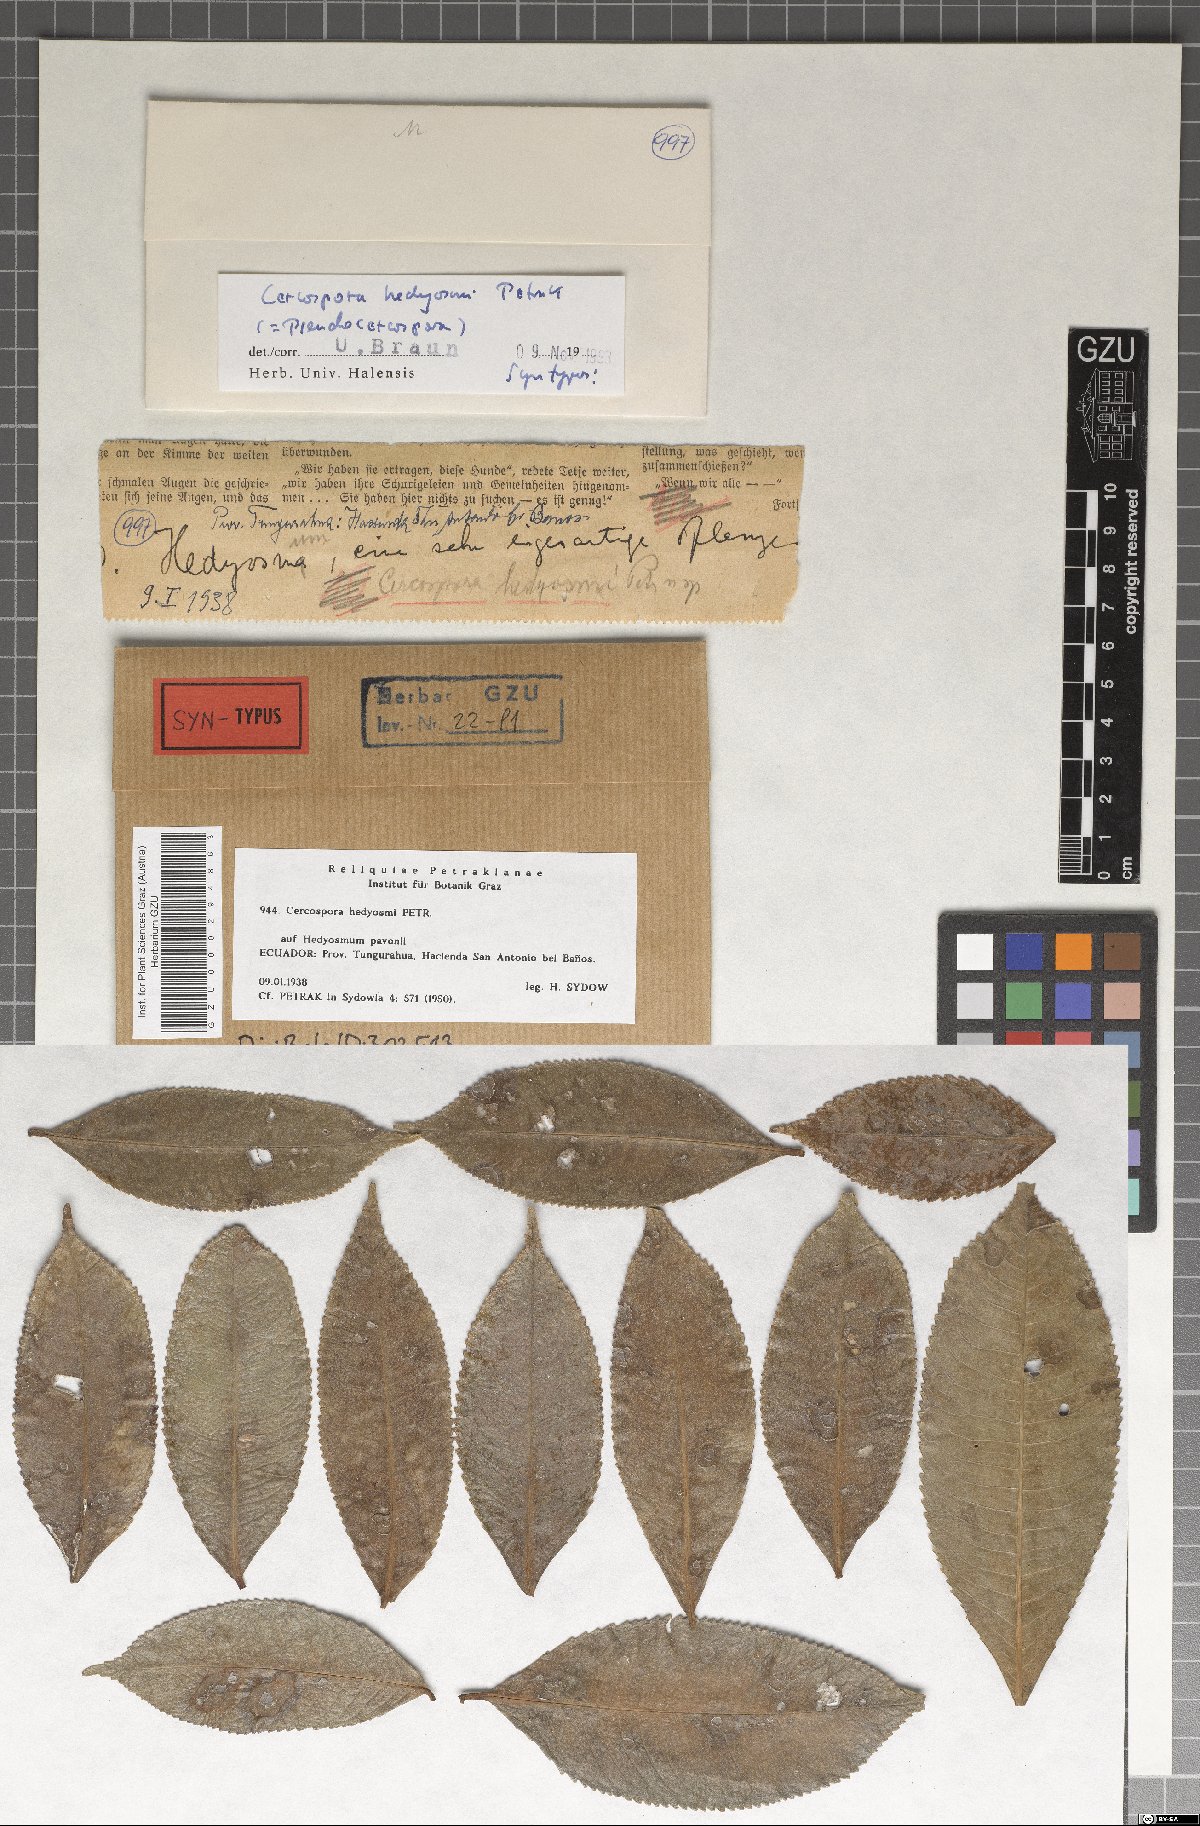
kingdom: Fungi
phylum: Ascomycota
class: Dothideomycetes
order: Mycosphaerellales
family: Mycosphaerellaceae
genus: Pseudocercospora
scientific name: Pseudocercospora hedyosmi
